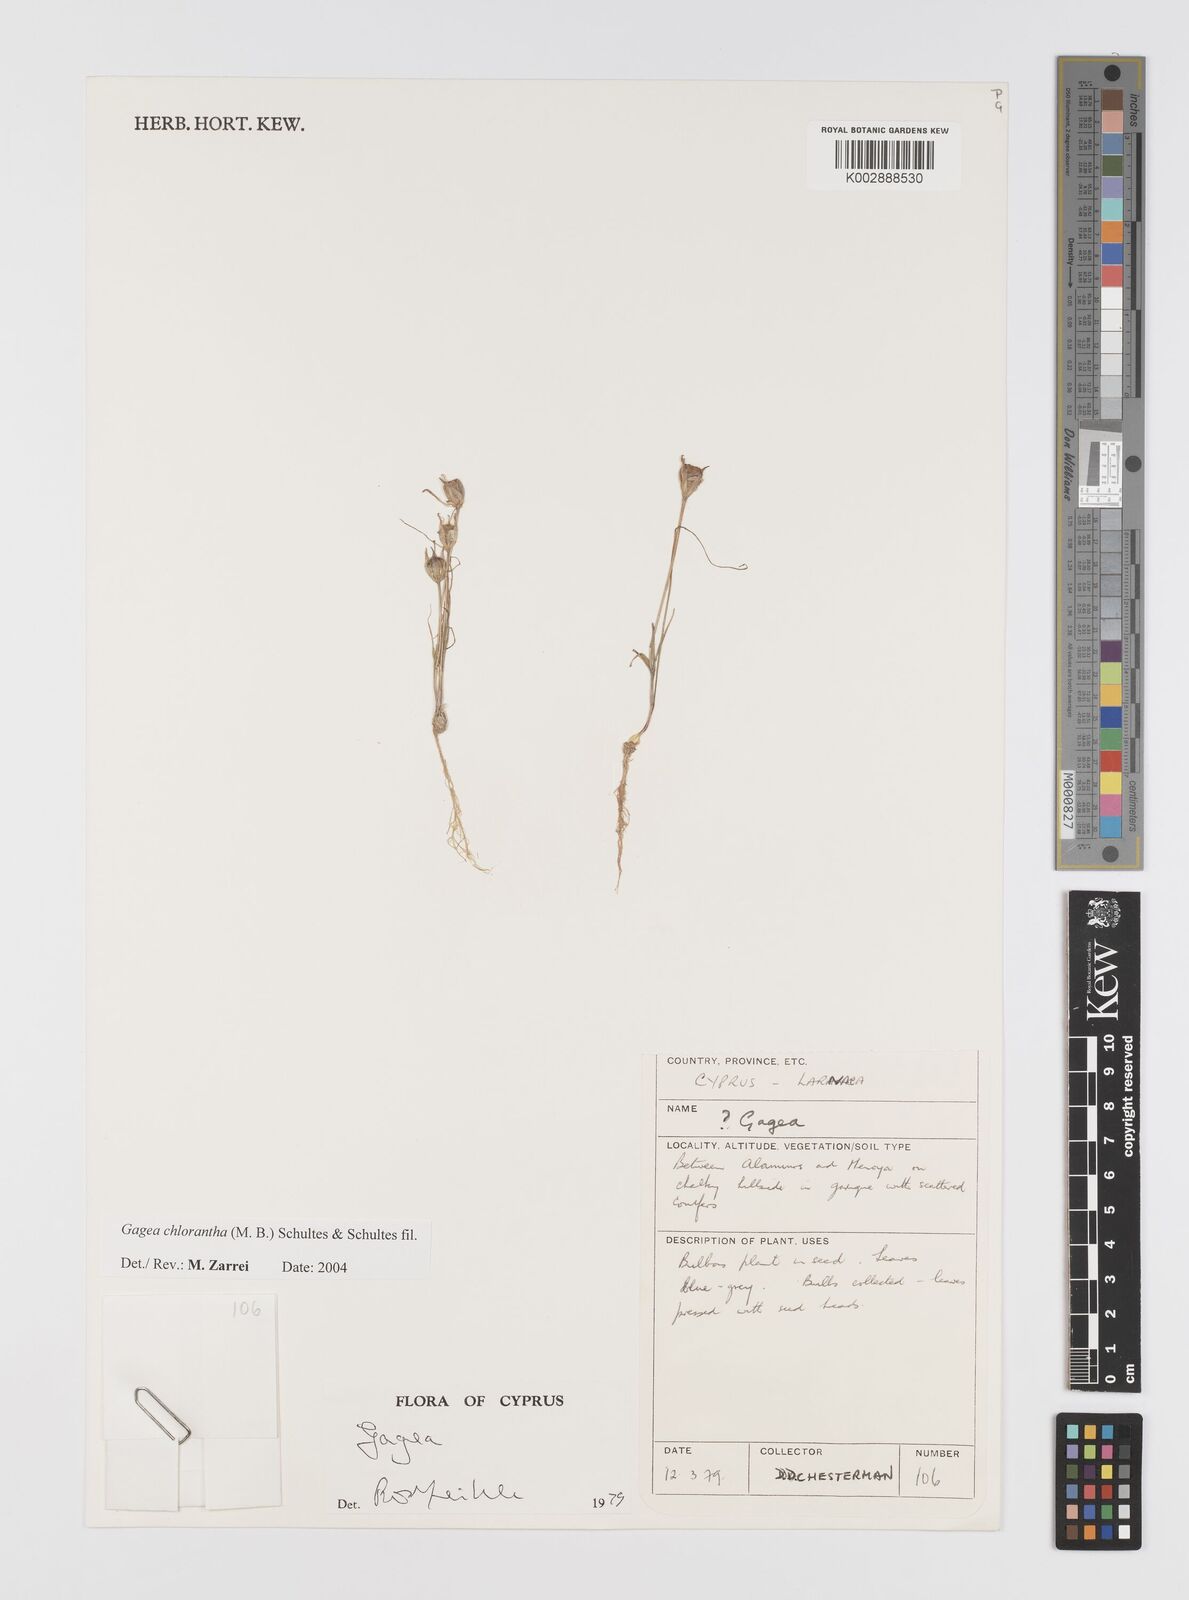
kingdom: Plantae
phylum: Tracheophyta
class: Liliopsida
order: Liliales
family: Liliaceae
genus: Gagea
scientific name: Gagea chlorantha
